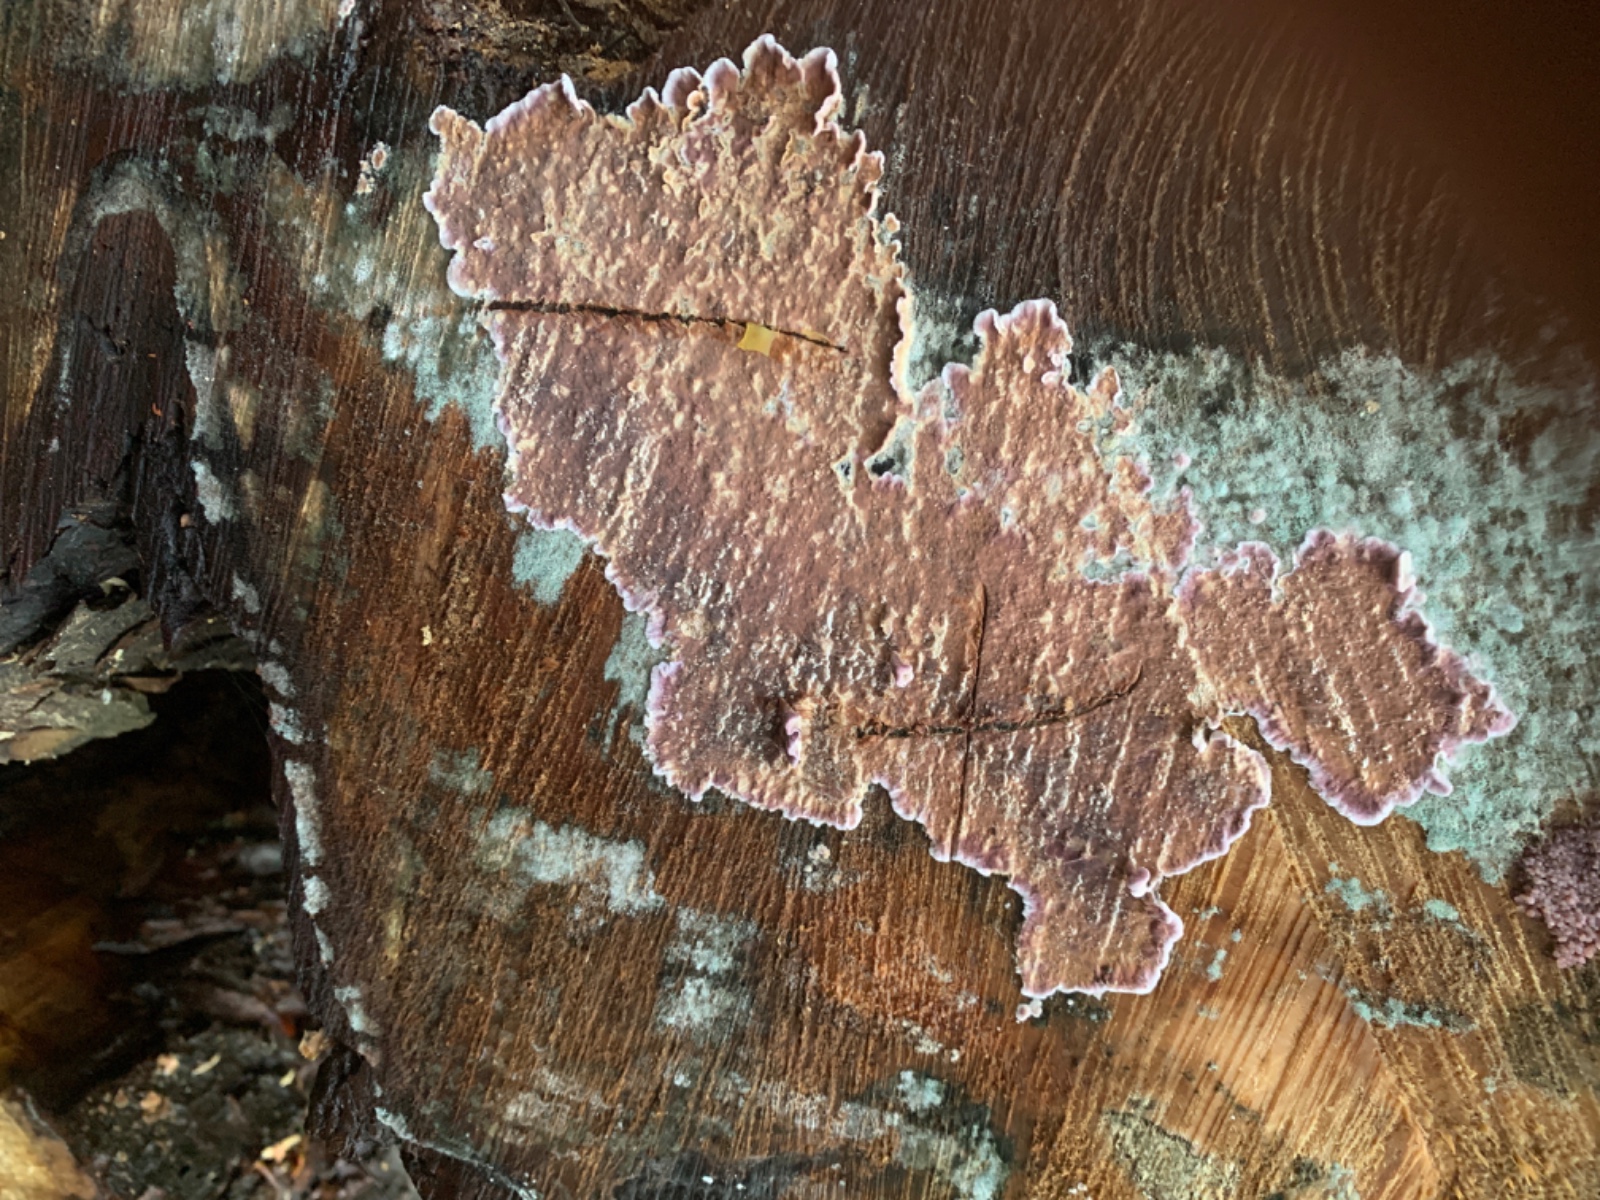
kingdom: Fungi
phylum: Basidiomycota
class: Agaricomycetes
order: Agaricales
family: Physalacriaceae
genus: Cylindrobasidium
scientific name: Cylindrobasidium evolvens
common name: sprækkehinde
